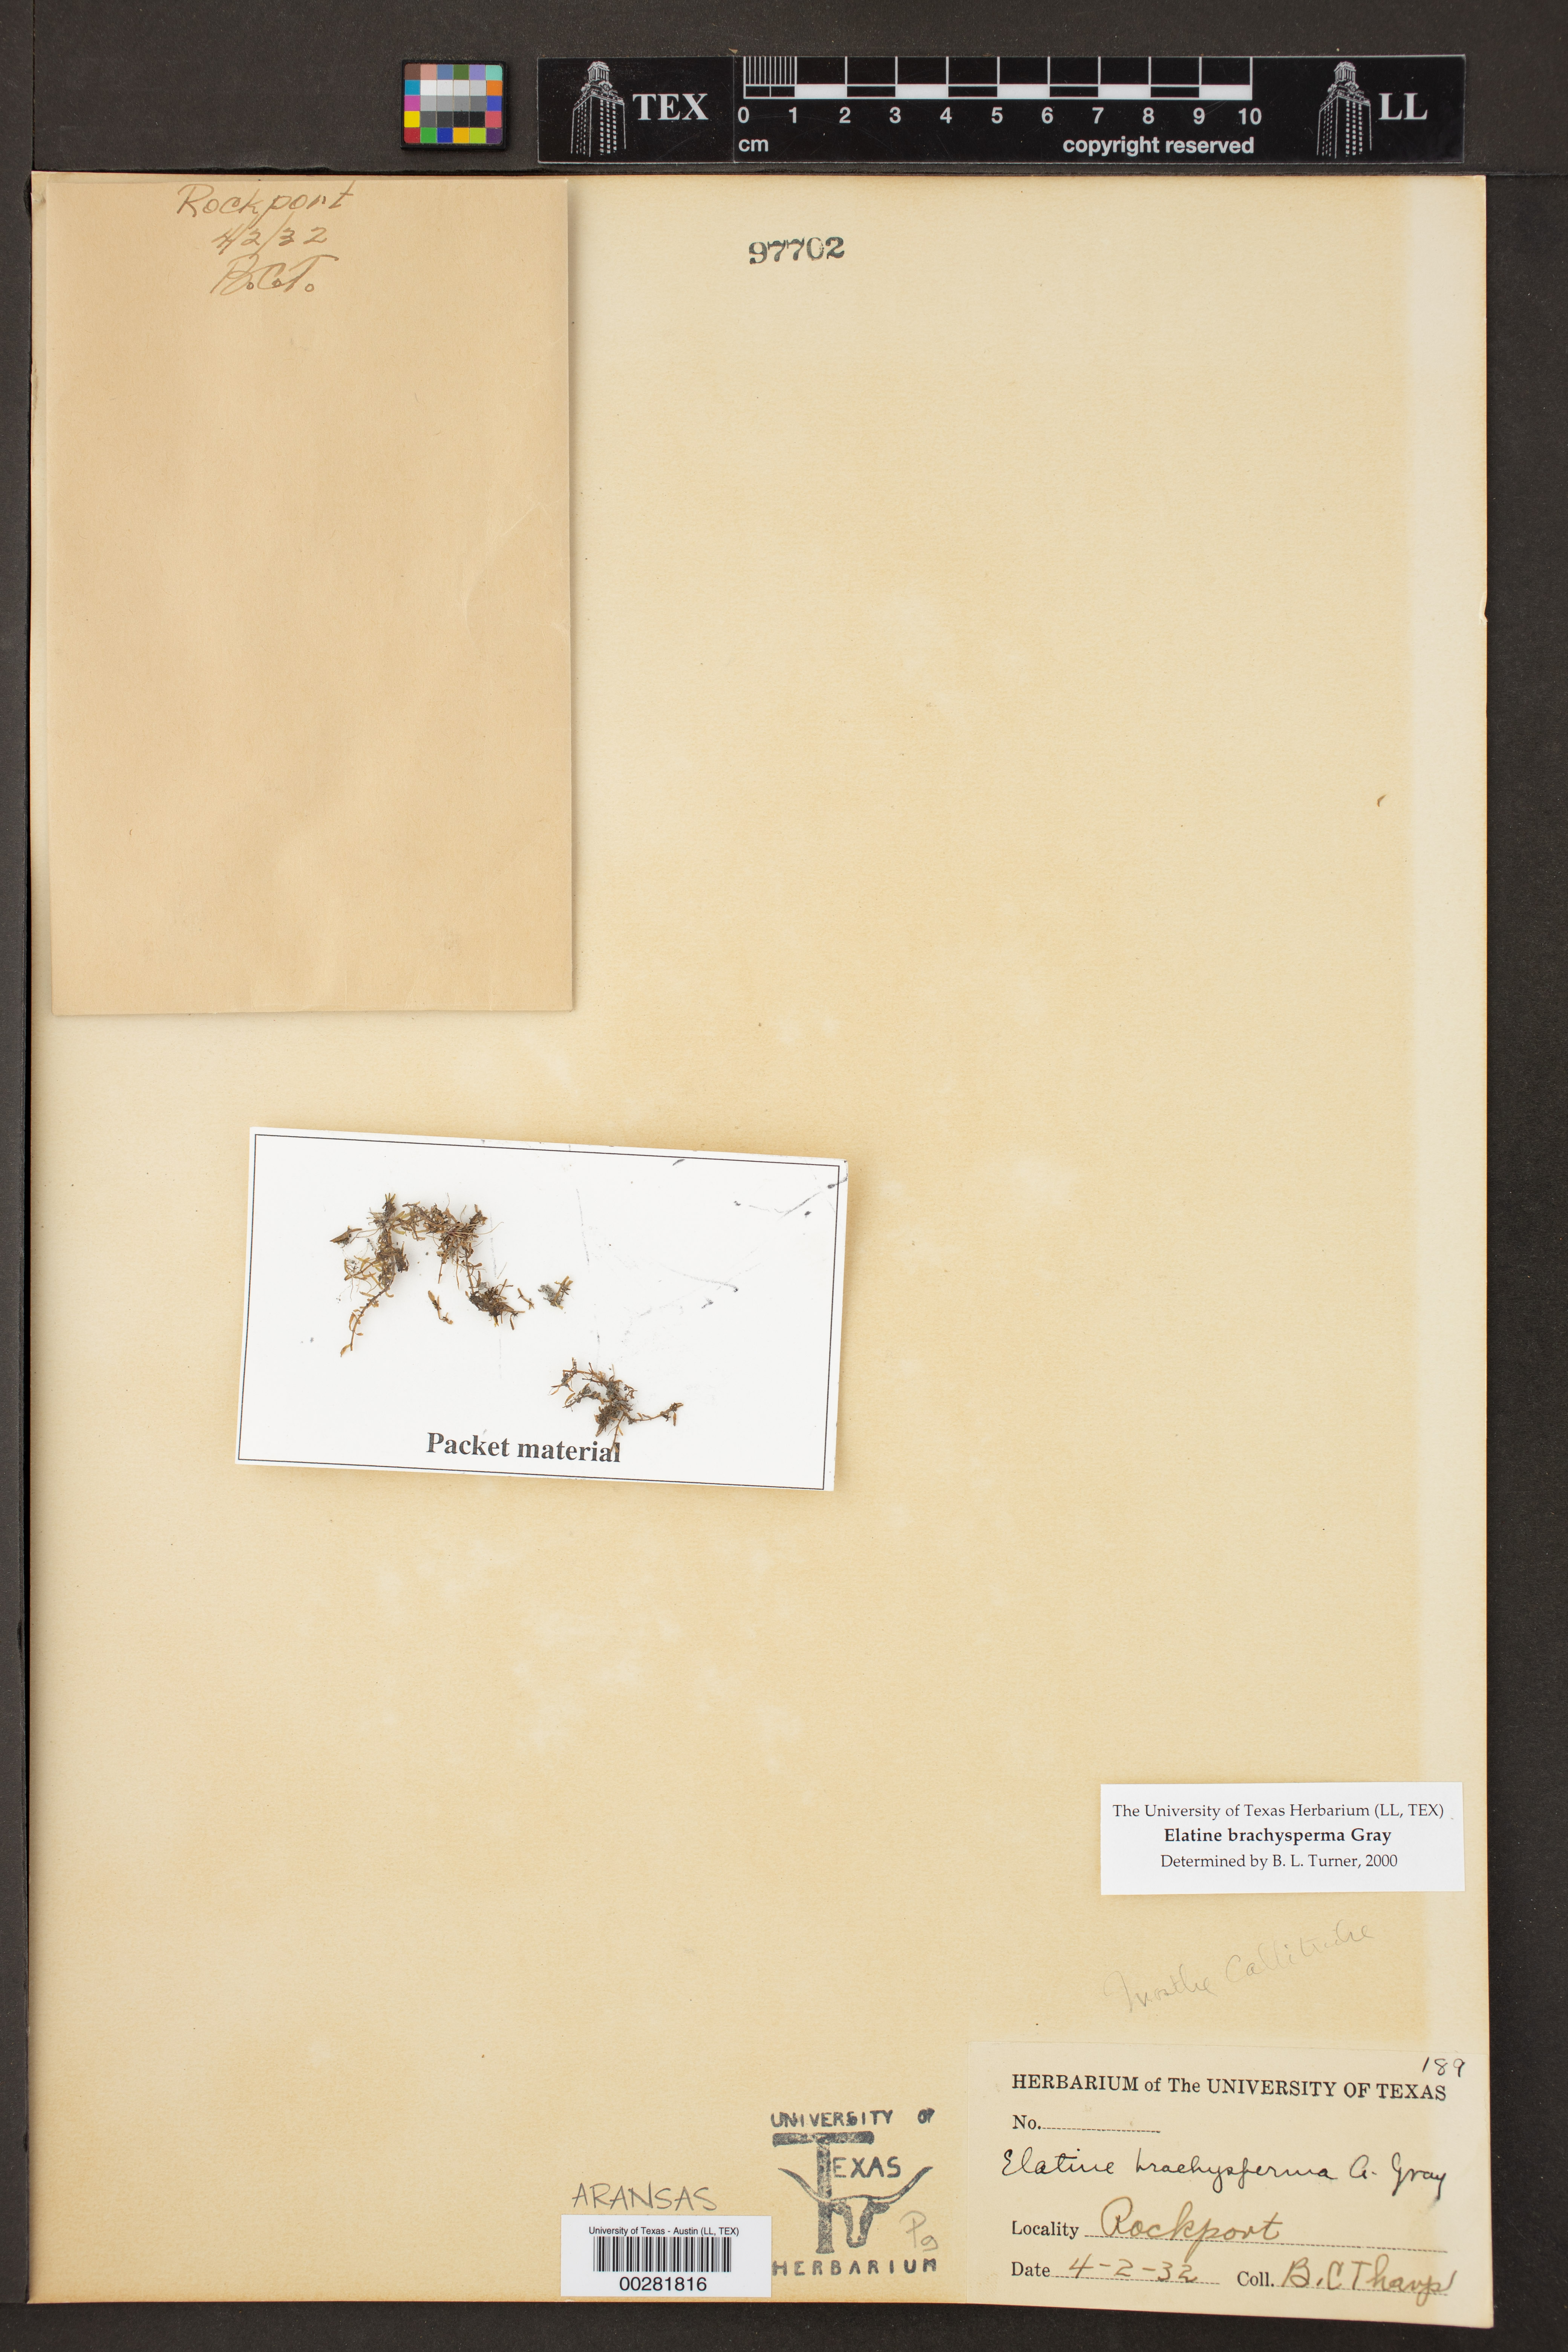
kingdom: Plantae
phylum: Tracheophyta
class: Magnoliopsida
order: Malpighiales
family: Elatinaceae
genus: Elatine
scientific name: Elatine brachysperma
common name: Short-fruited waterwort
